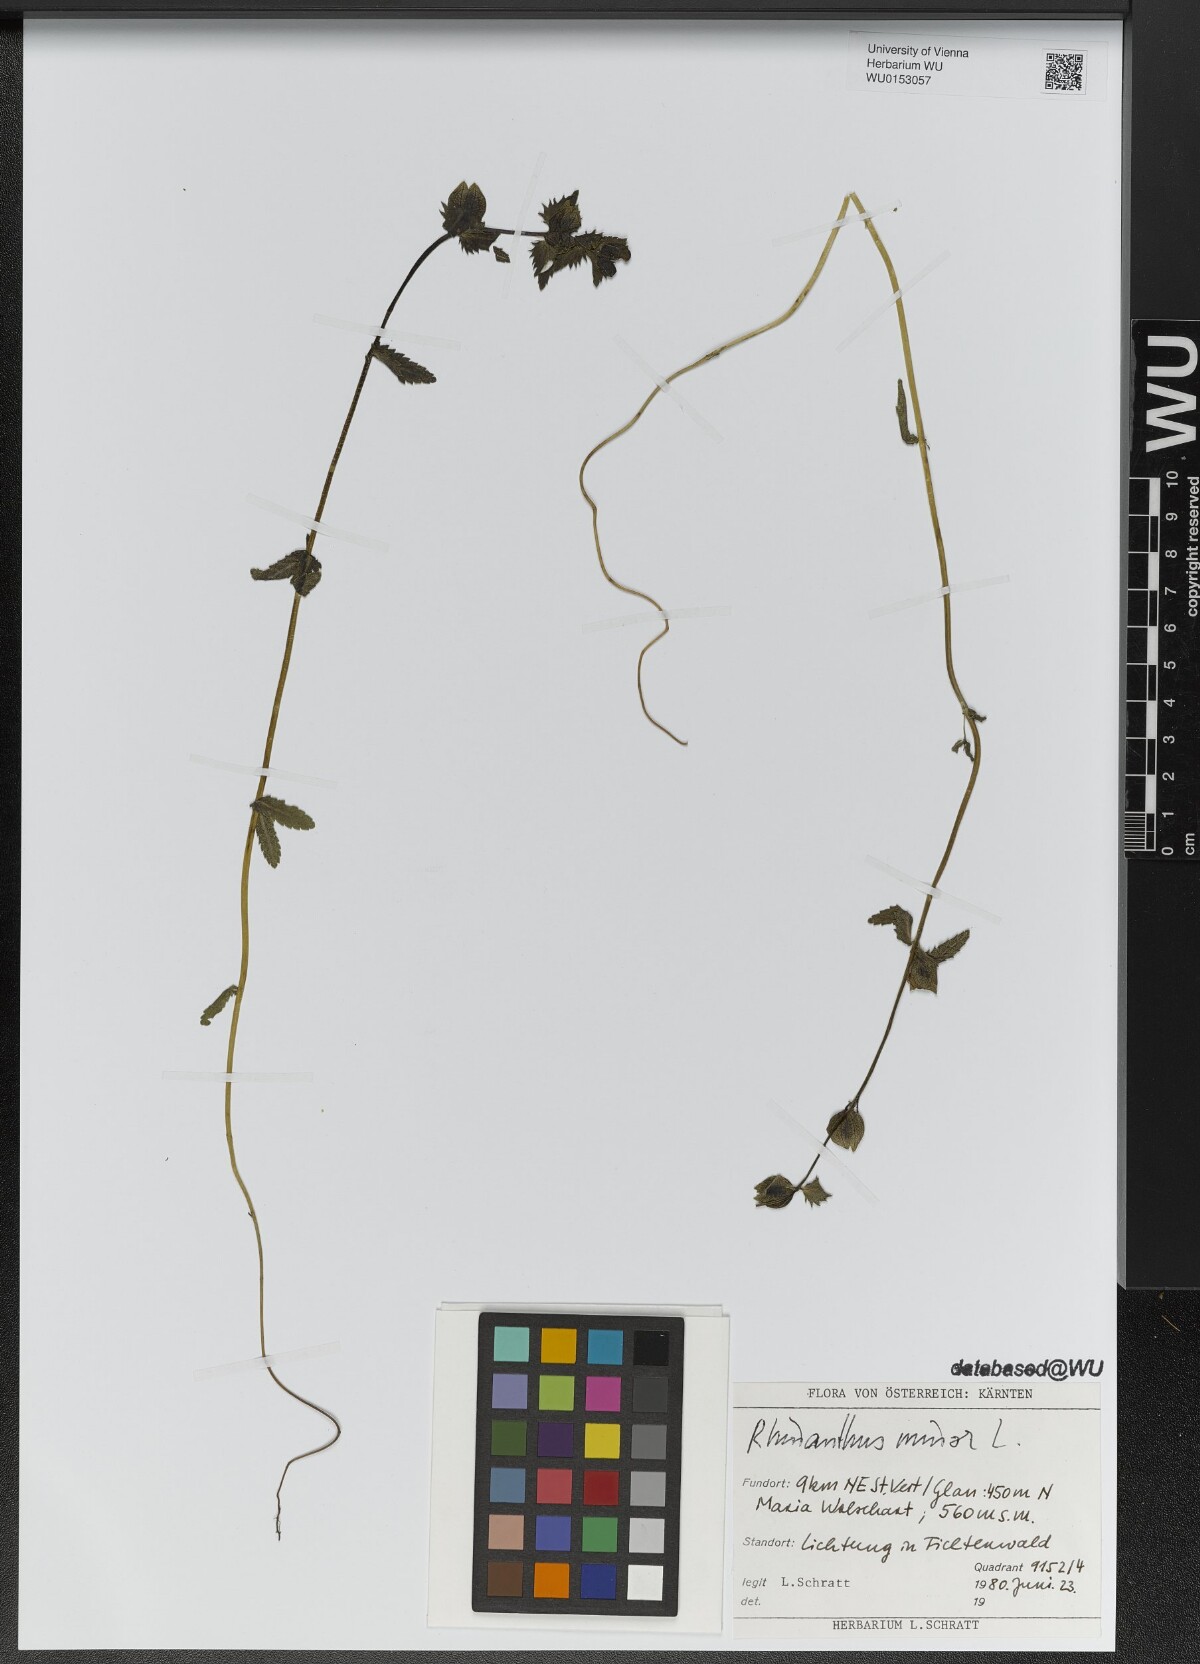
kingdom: Plantae
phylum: Tracheophyta
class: Magnoliopsida
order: Lamiales
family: Orobanchaceae
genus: Rhinanthus
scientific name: Rhinanthus minor
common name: Yellow-rattle
